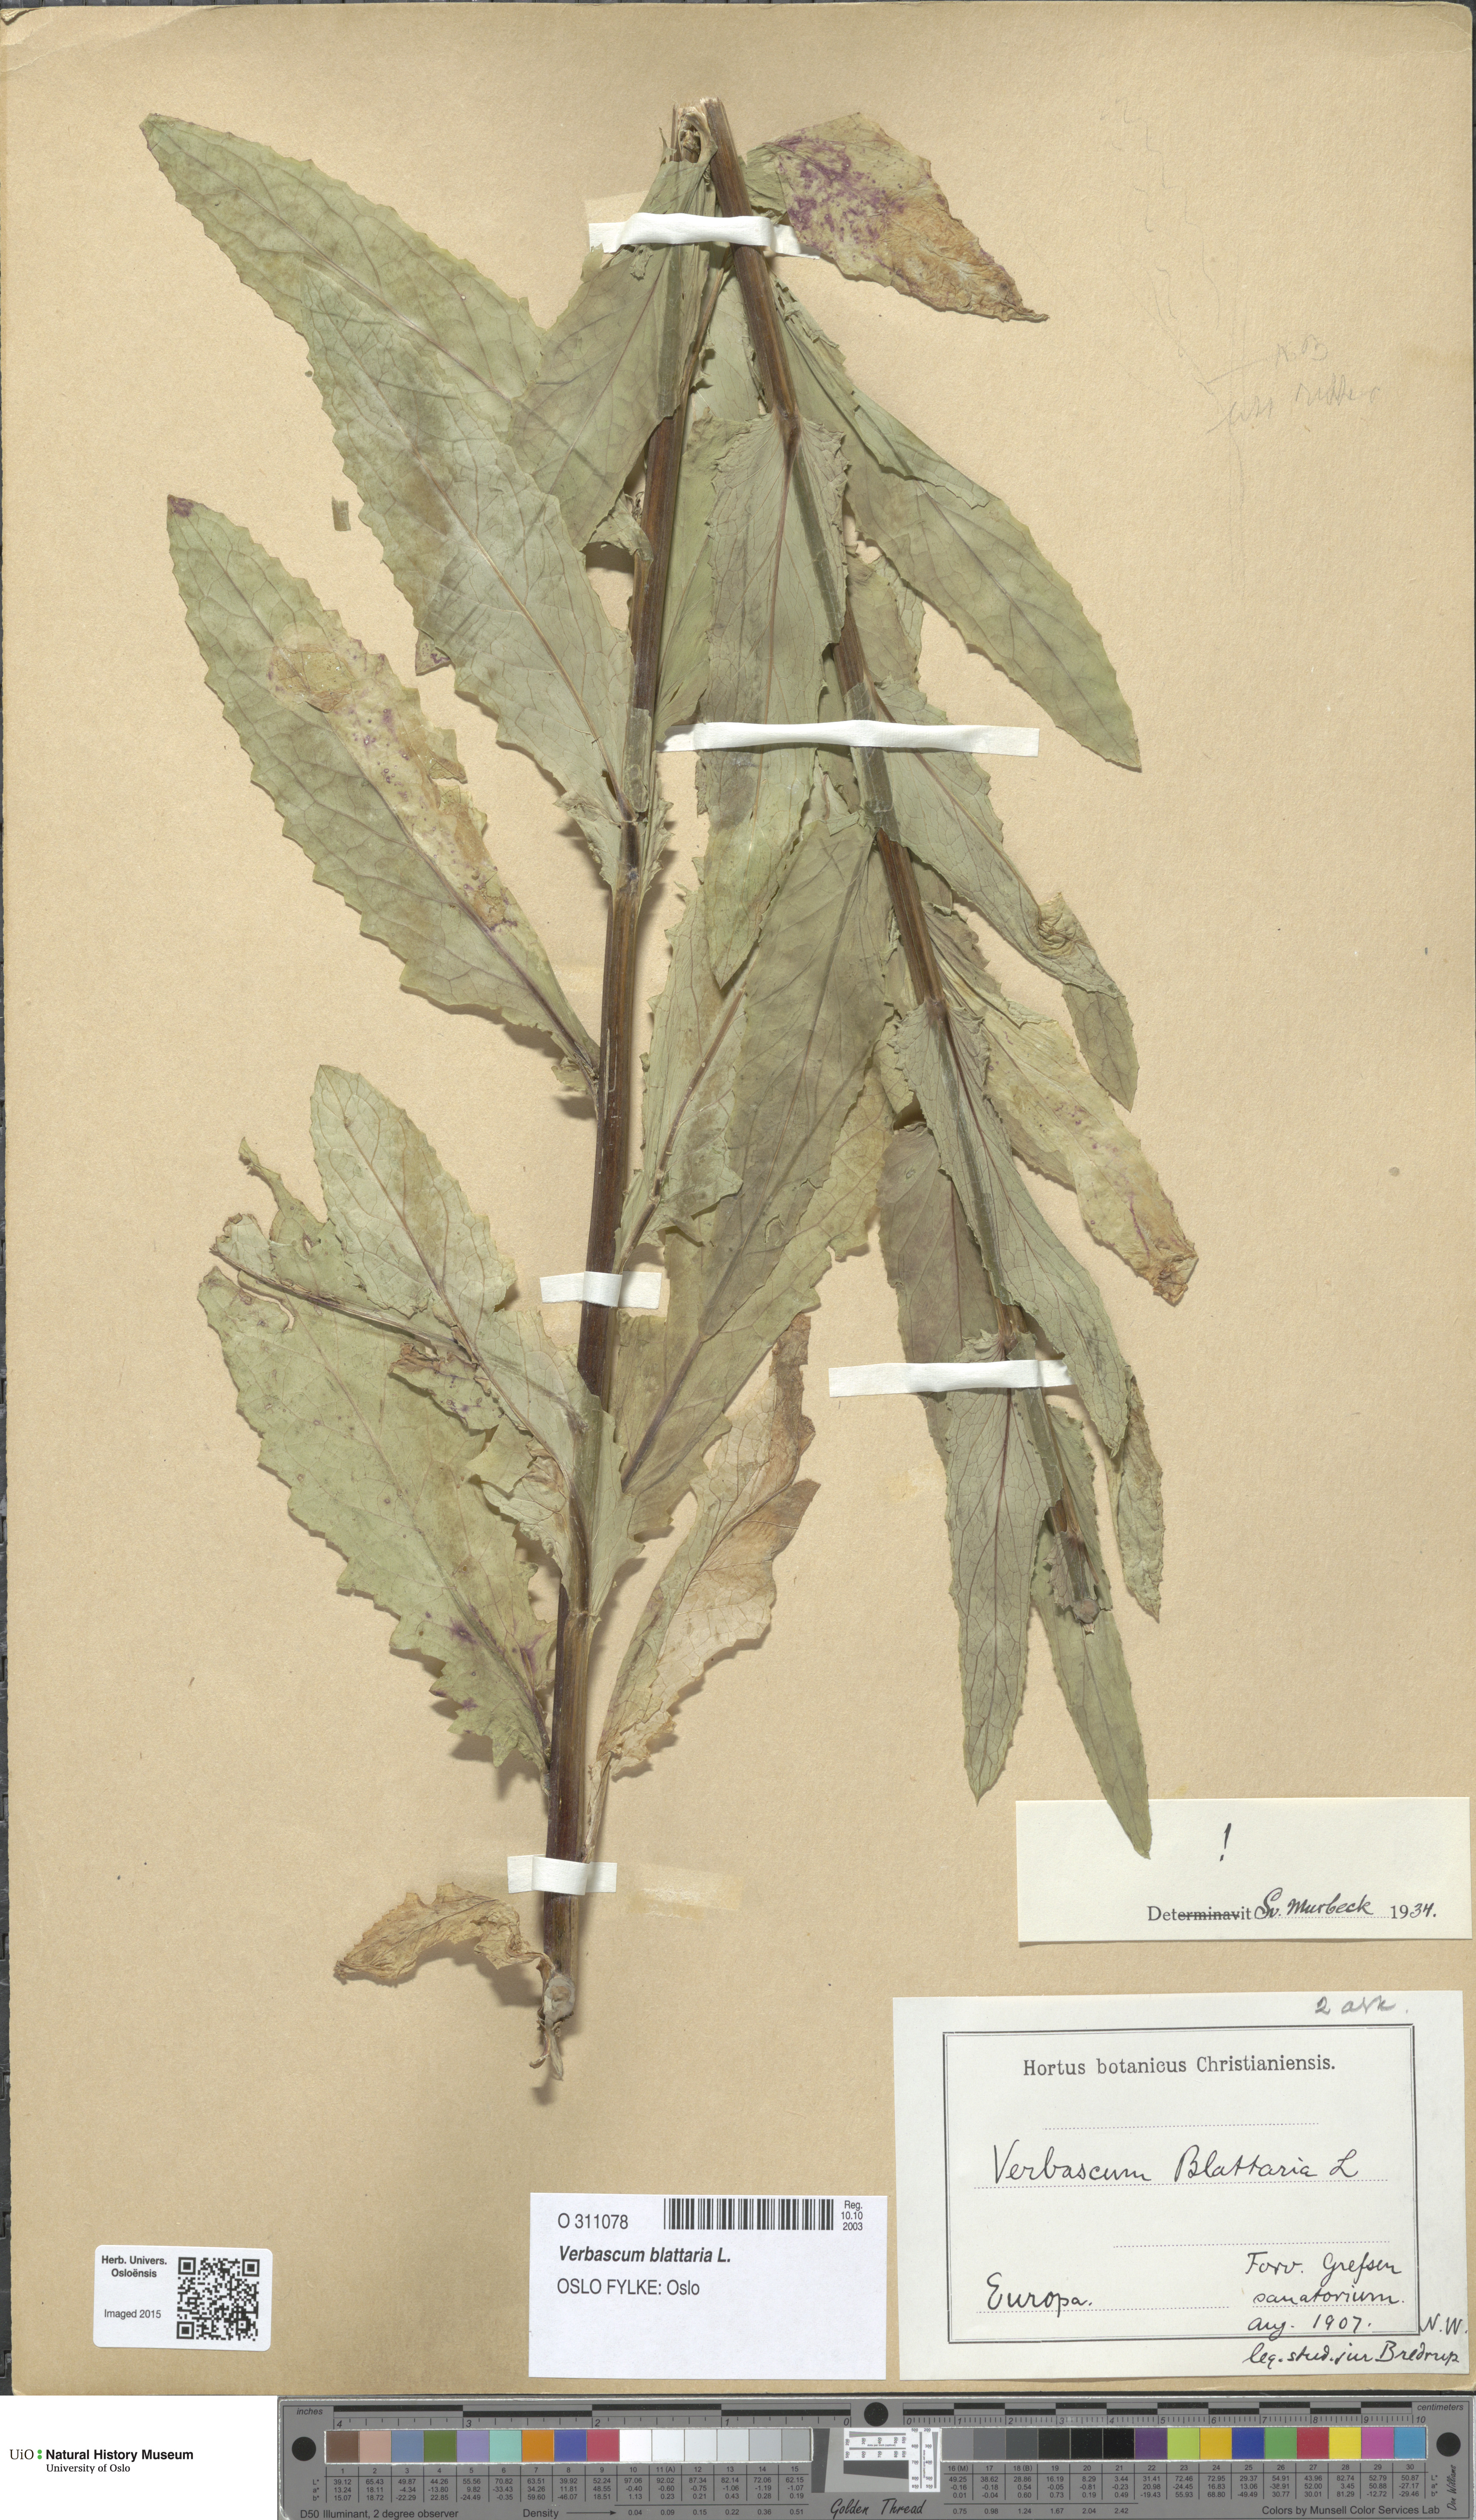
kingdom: Plantae
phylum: Tracheophyta
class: Magnoliopsida
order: Lamiales
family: Scrophulariaceae
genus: Verbascum
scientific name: Verbascum blattaria
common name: Moth mullein
